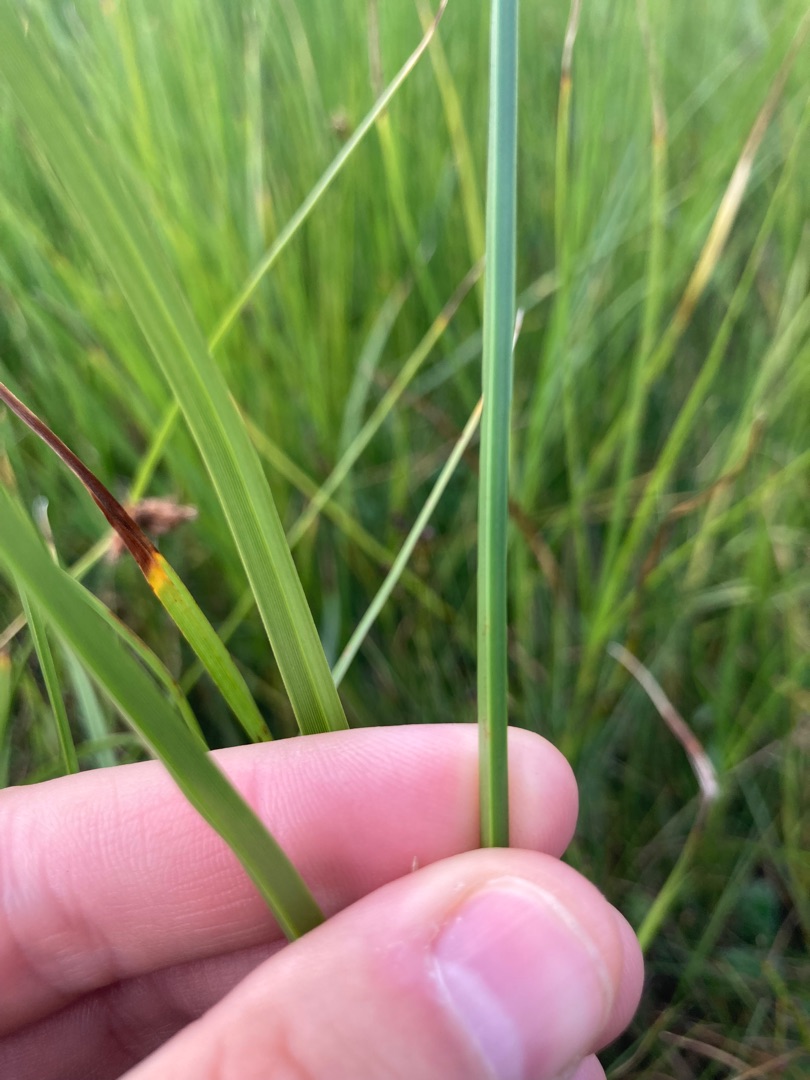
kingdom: Plantae
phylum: Tracheophyta
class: Liliopsida
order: Poales
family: Cyperaceae
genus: Bolboschoenus
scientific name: Bolboschoenus maritimus
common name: Strand-kogleaks
